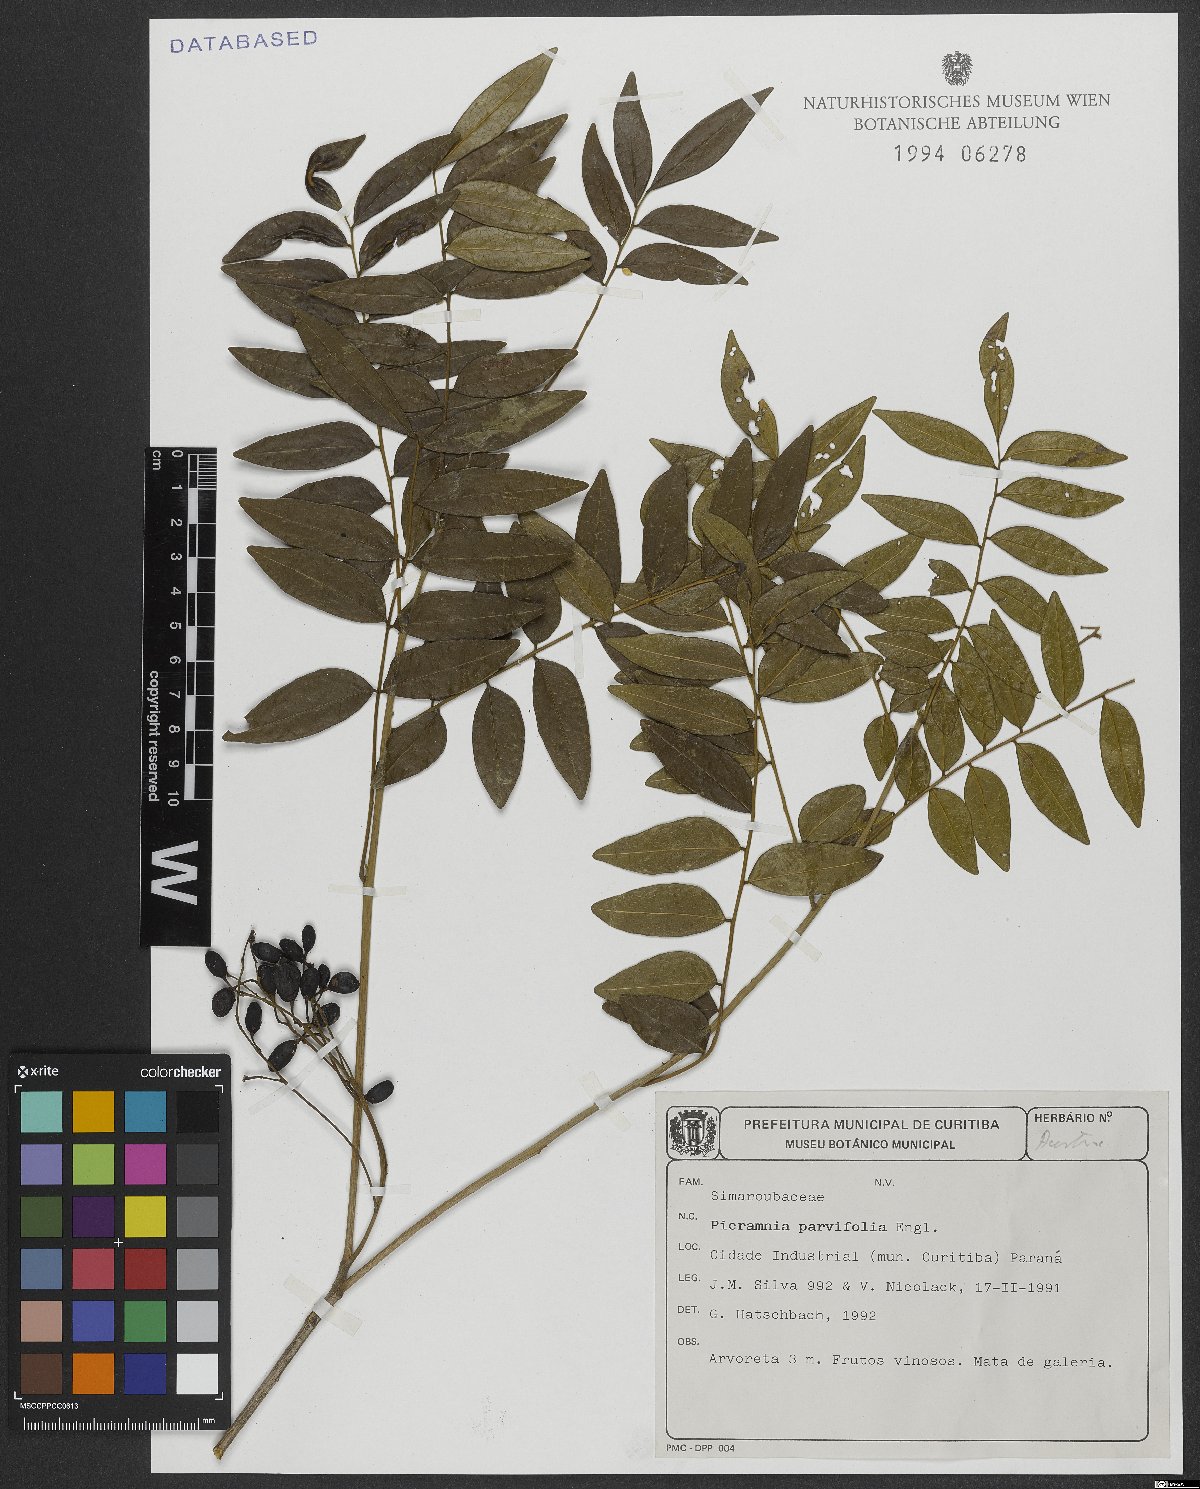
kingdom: Plantae
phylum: Tracheophyta
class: Magnoliopsida
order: Picramniales
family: Picramniaceae
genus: Picramnia
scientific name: Picramnia parvifolia
